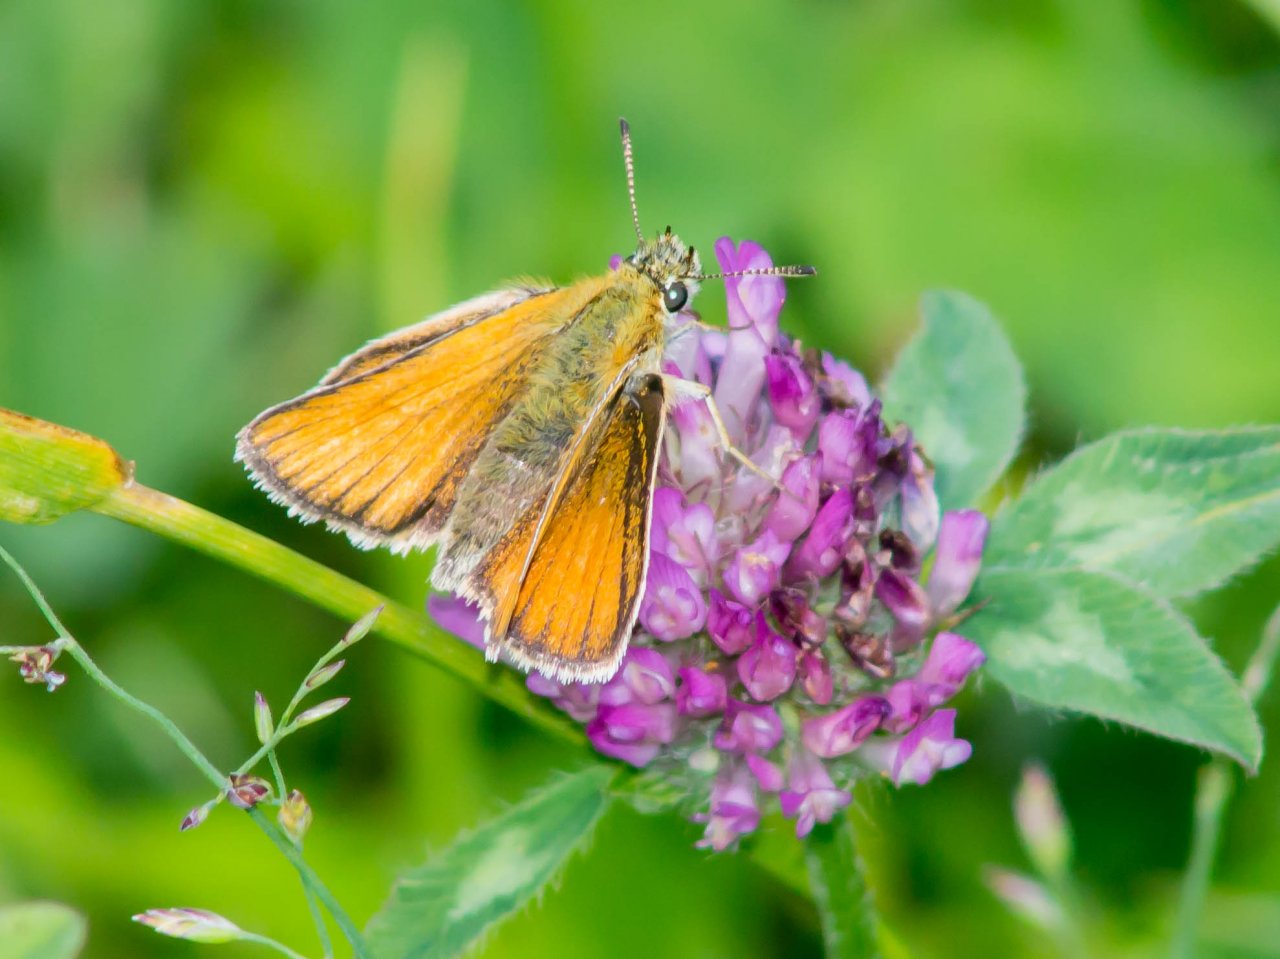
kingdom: Animalia
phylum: Arthropoda
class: Insecta
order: Lepidoptera
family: Hesperiidae
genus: Thymelicus
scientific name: Thymelicus lineola
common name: European Skipper
